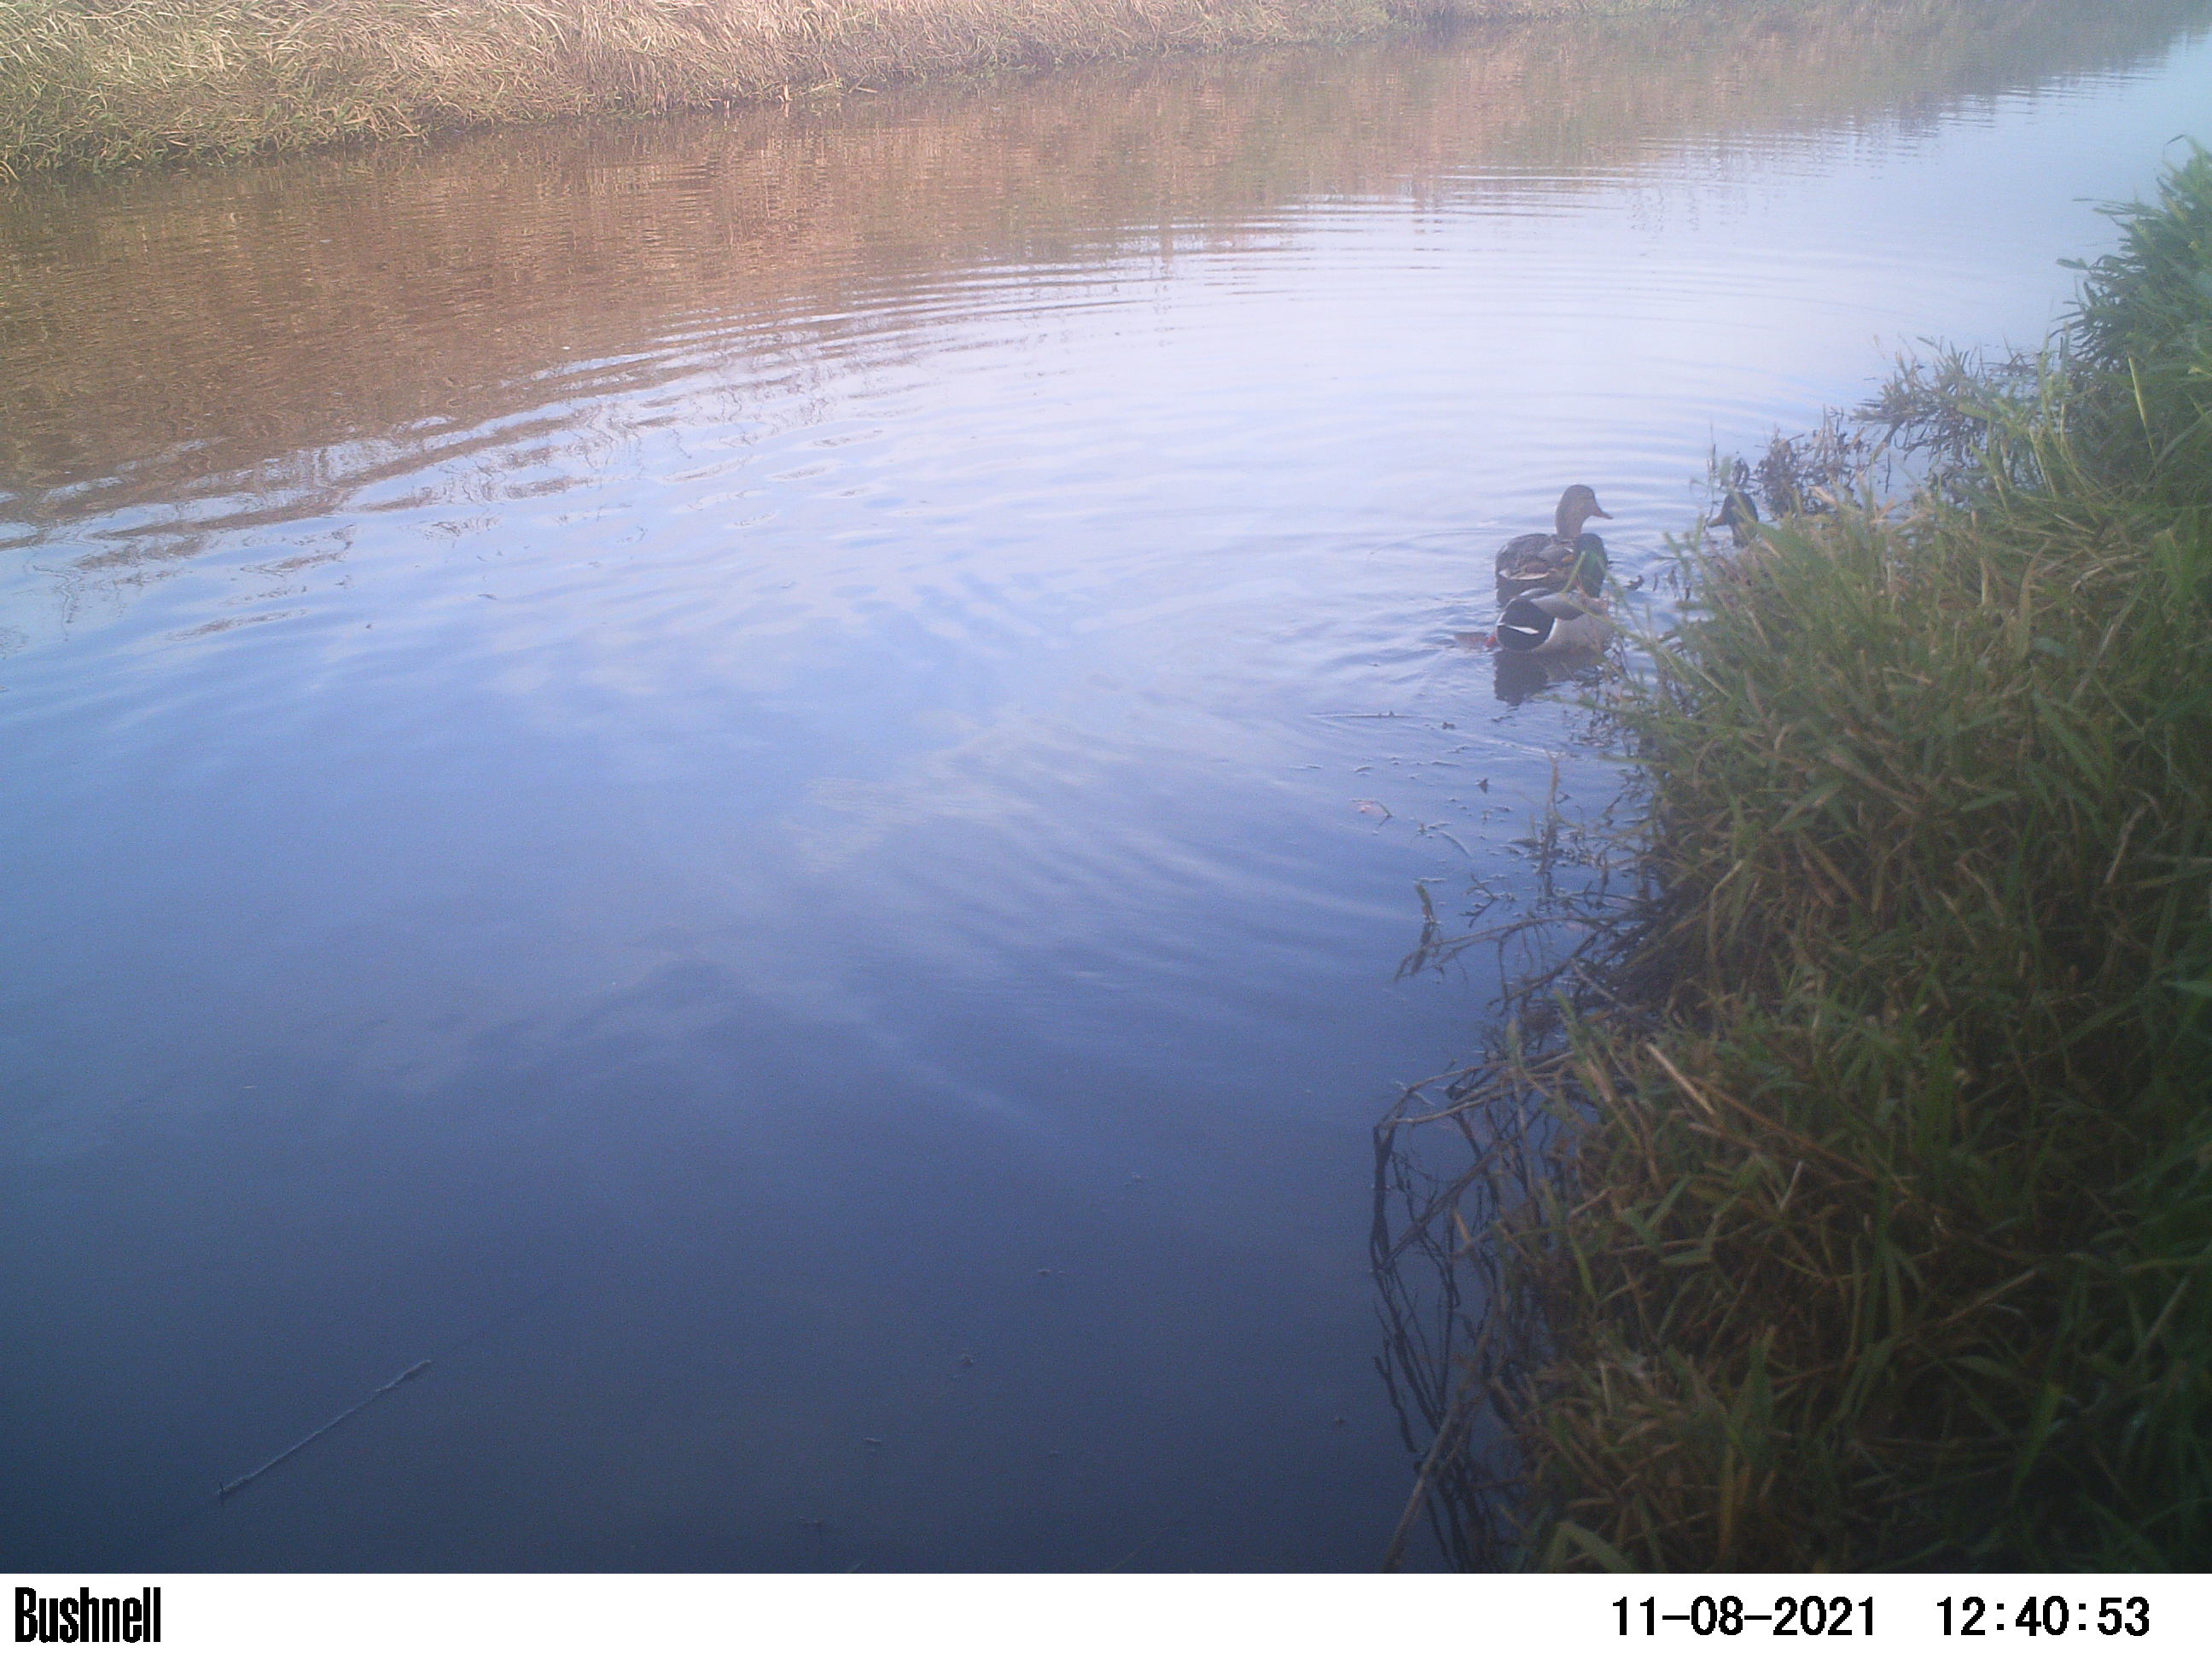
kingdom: Animalia
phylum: Chordata
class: Aves
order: Gruiformes
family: Rallidae
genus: Gallinula
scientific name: Gallinula chloropus
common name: Common moorhen
